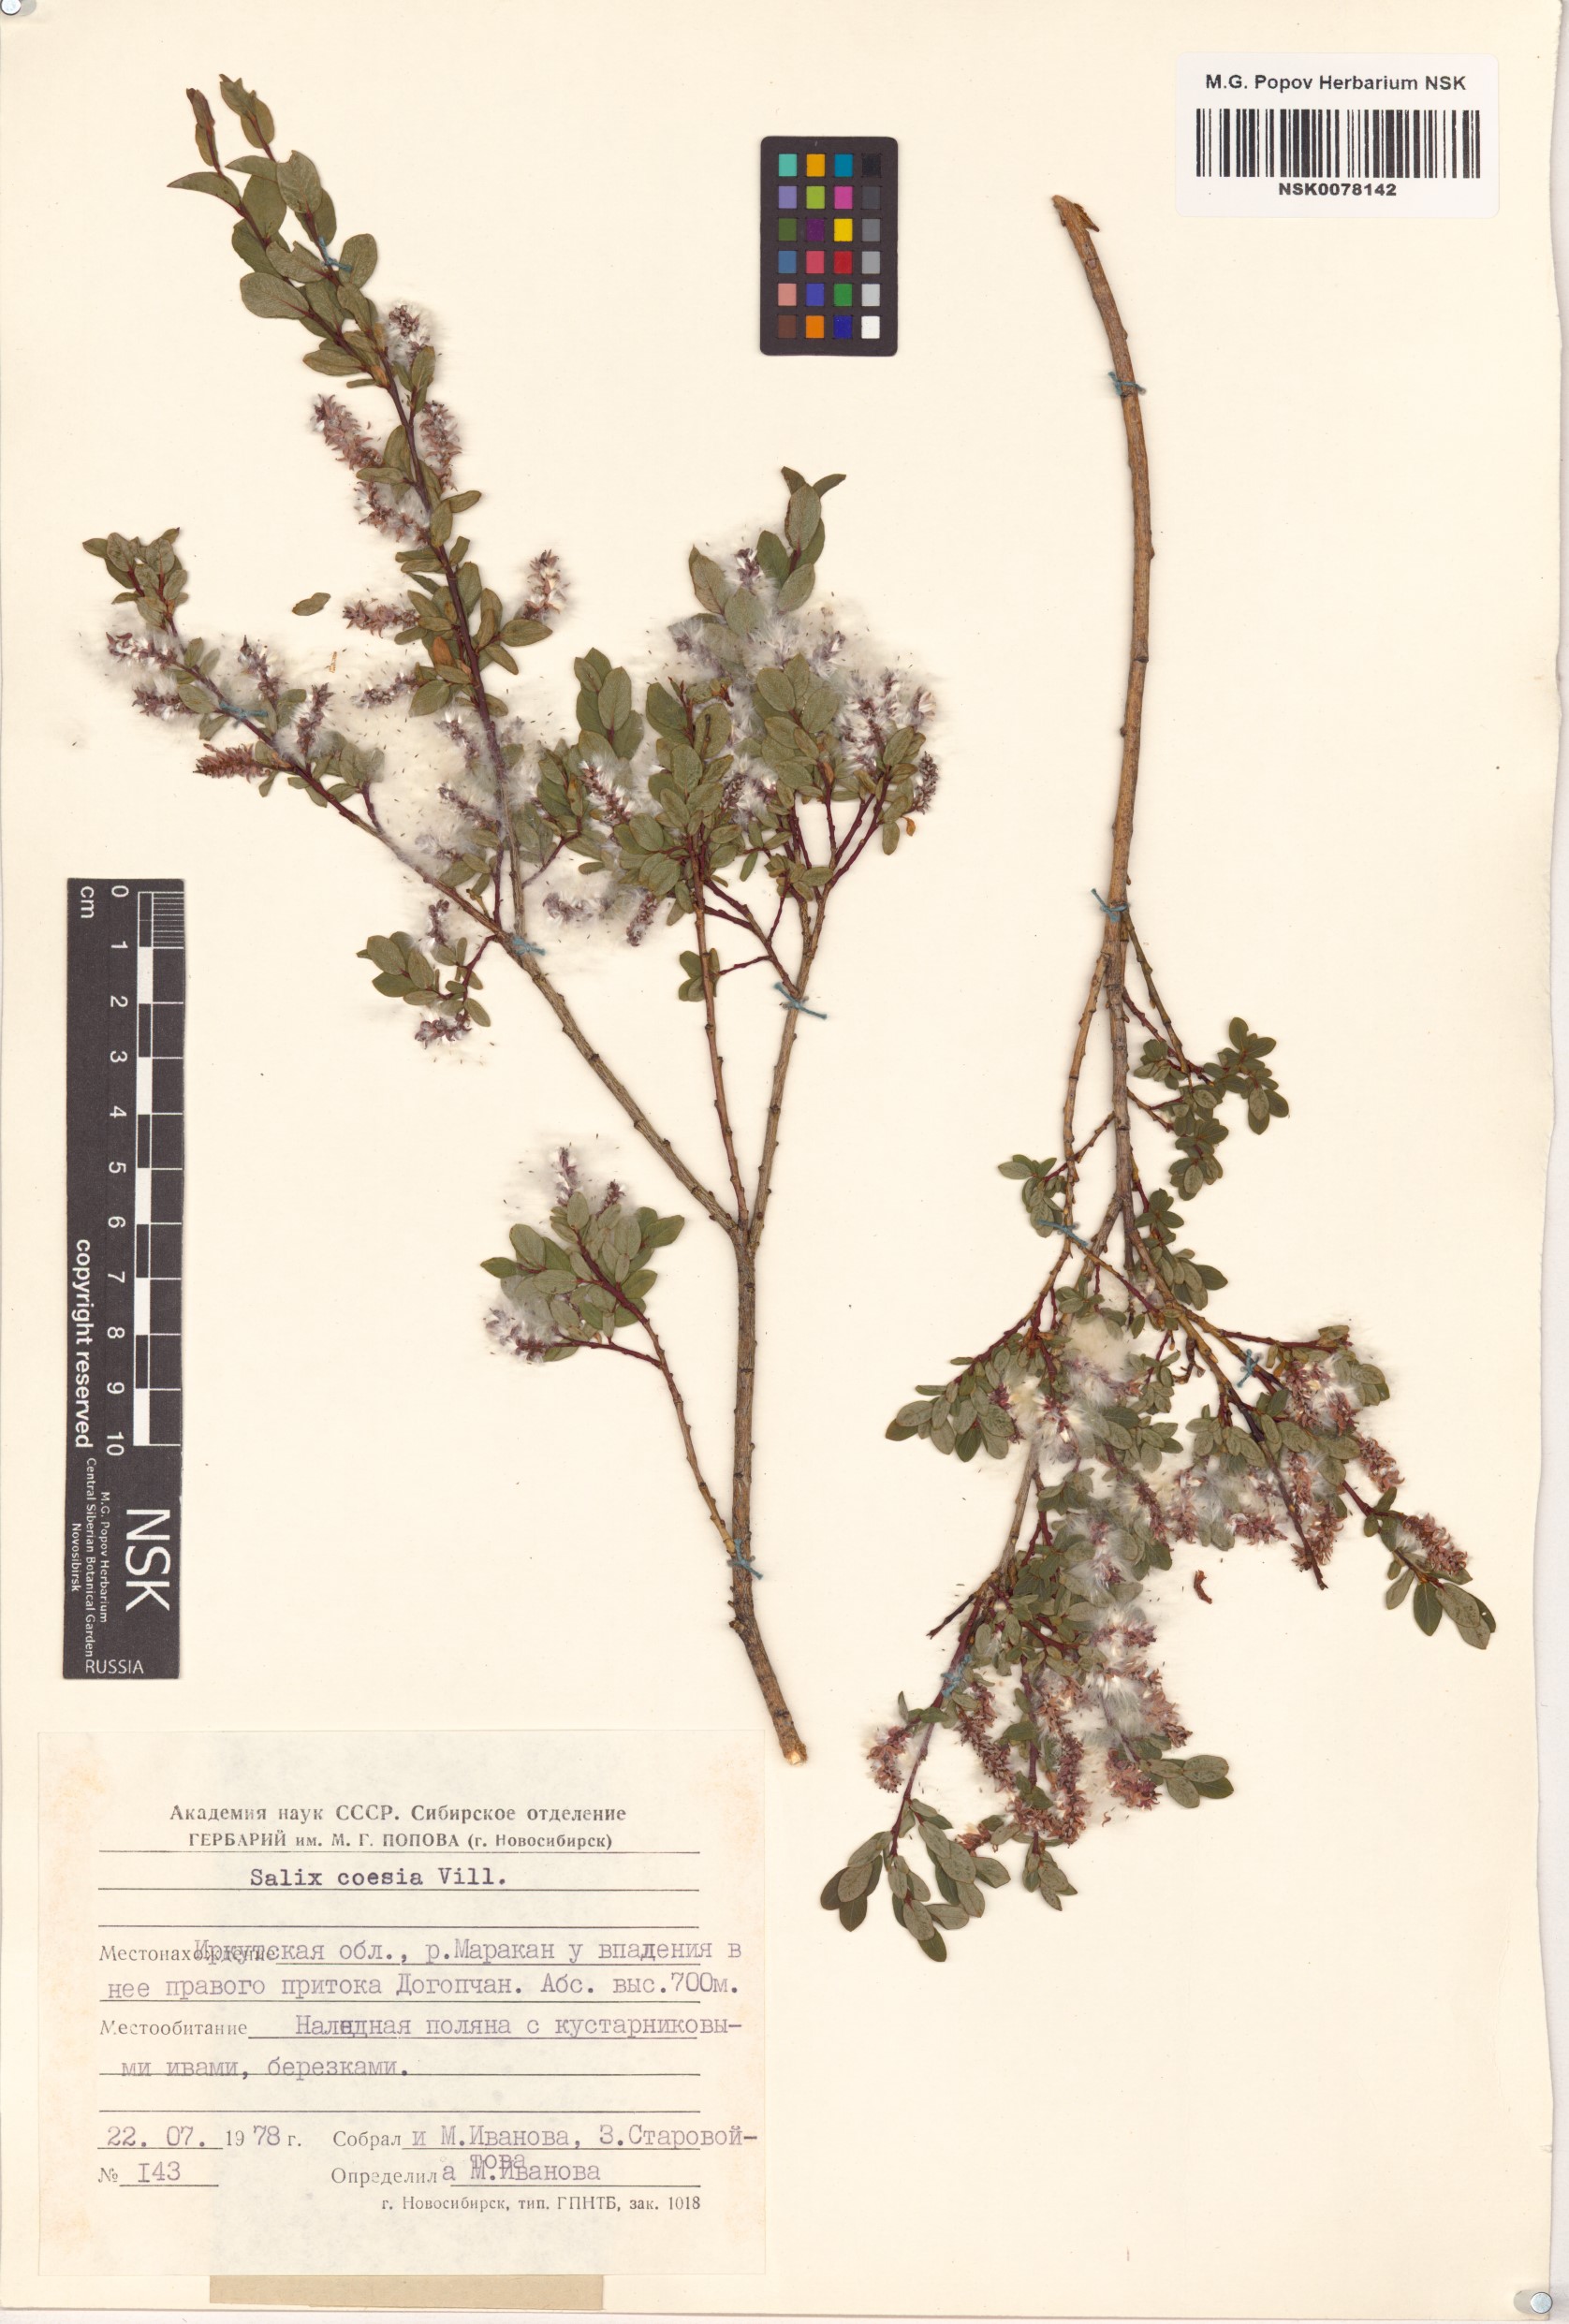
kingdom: Plantae
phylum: Tracheophyta
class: Magnoliopsida
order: Malpighiales
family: Salicaceae
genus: Salix
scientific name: Salix caesia
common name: Blue willow
